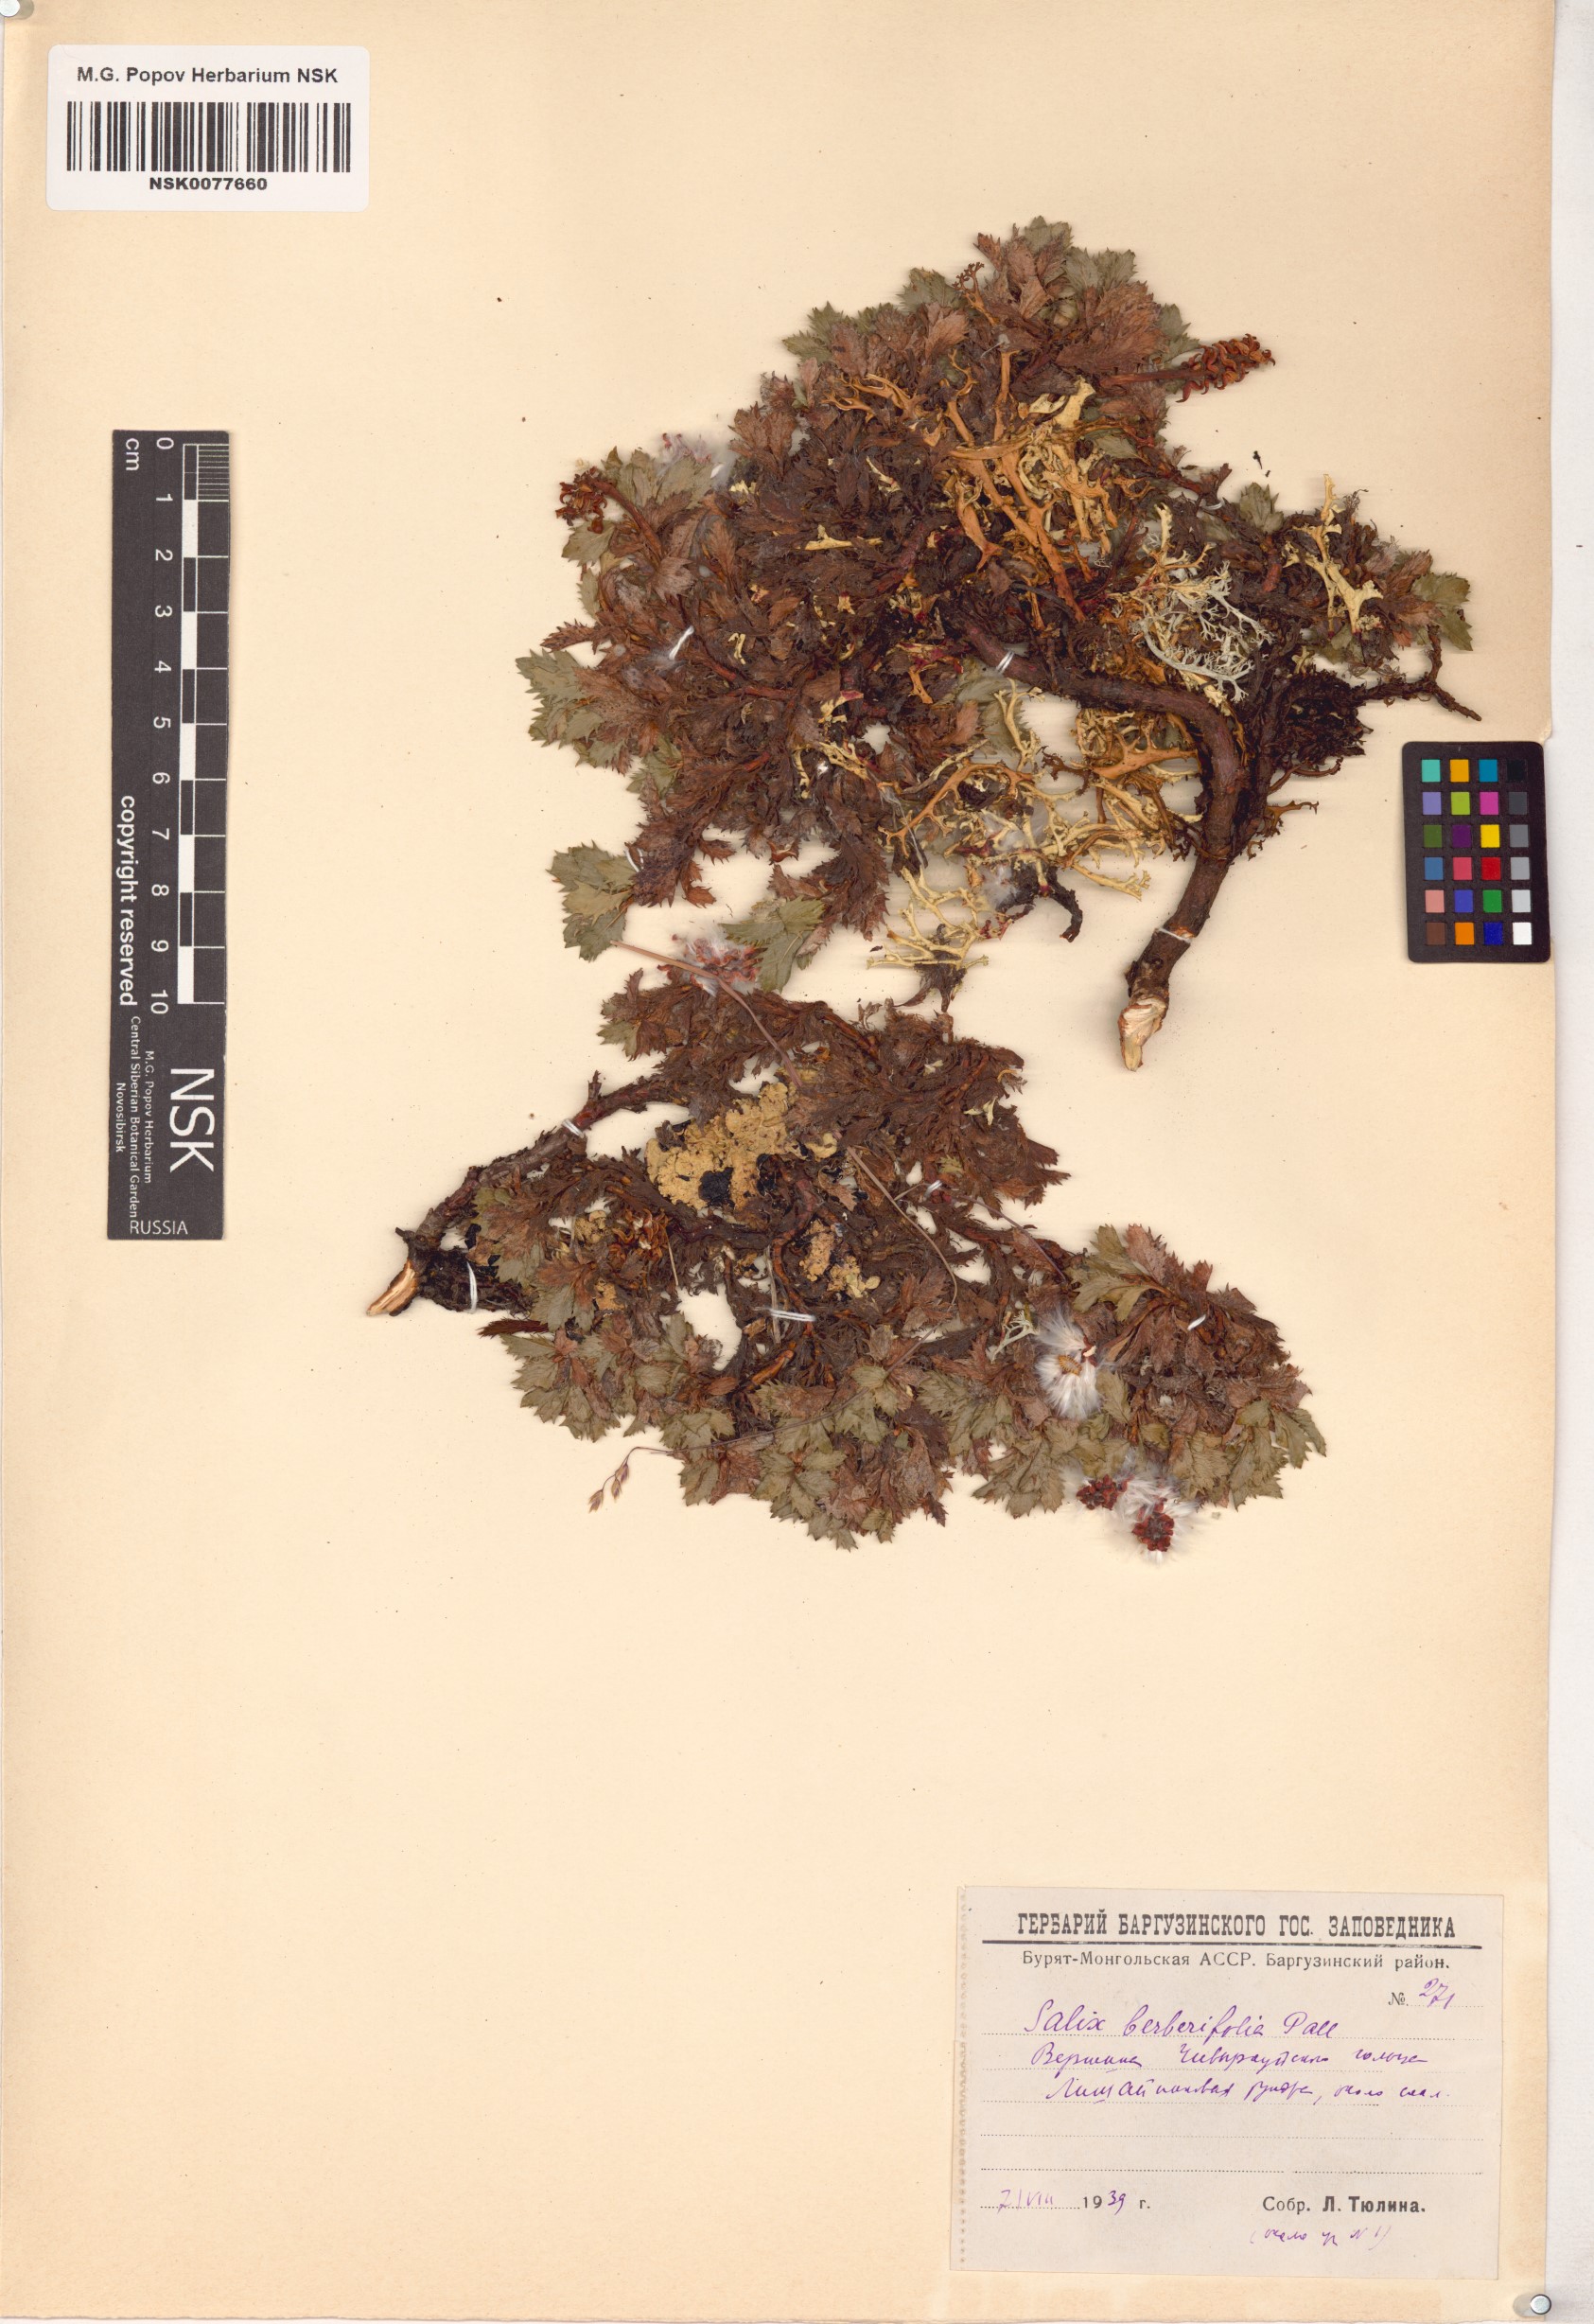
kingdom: Plantae
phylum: Tracheophyta
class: Magnoliopsida
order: Malpighiales
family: Salicaceae
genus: Salix
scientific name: Salix berberifolia
